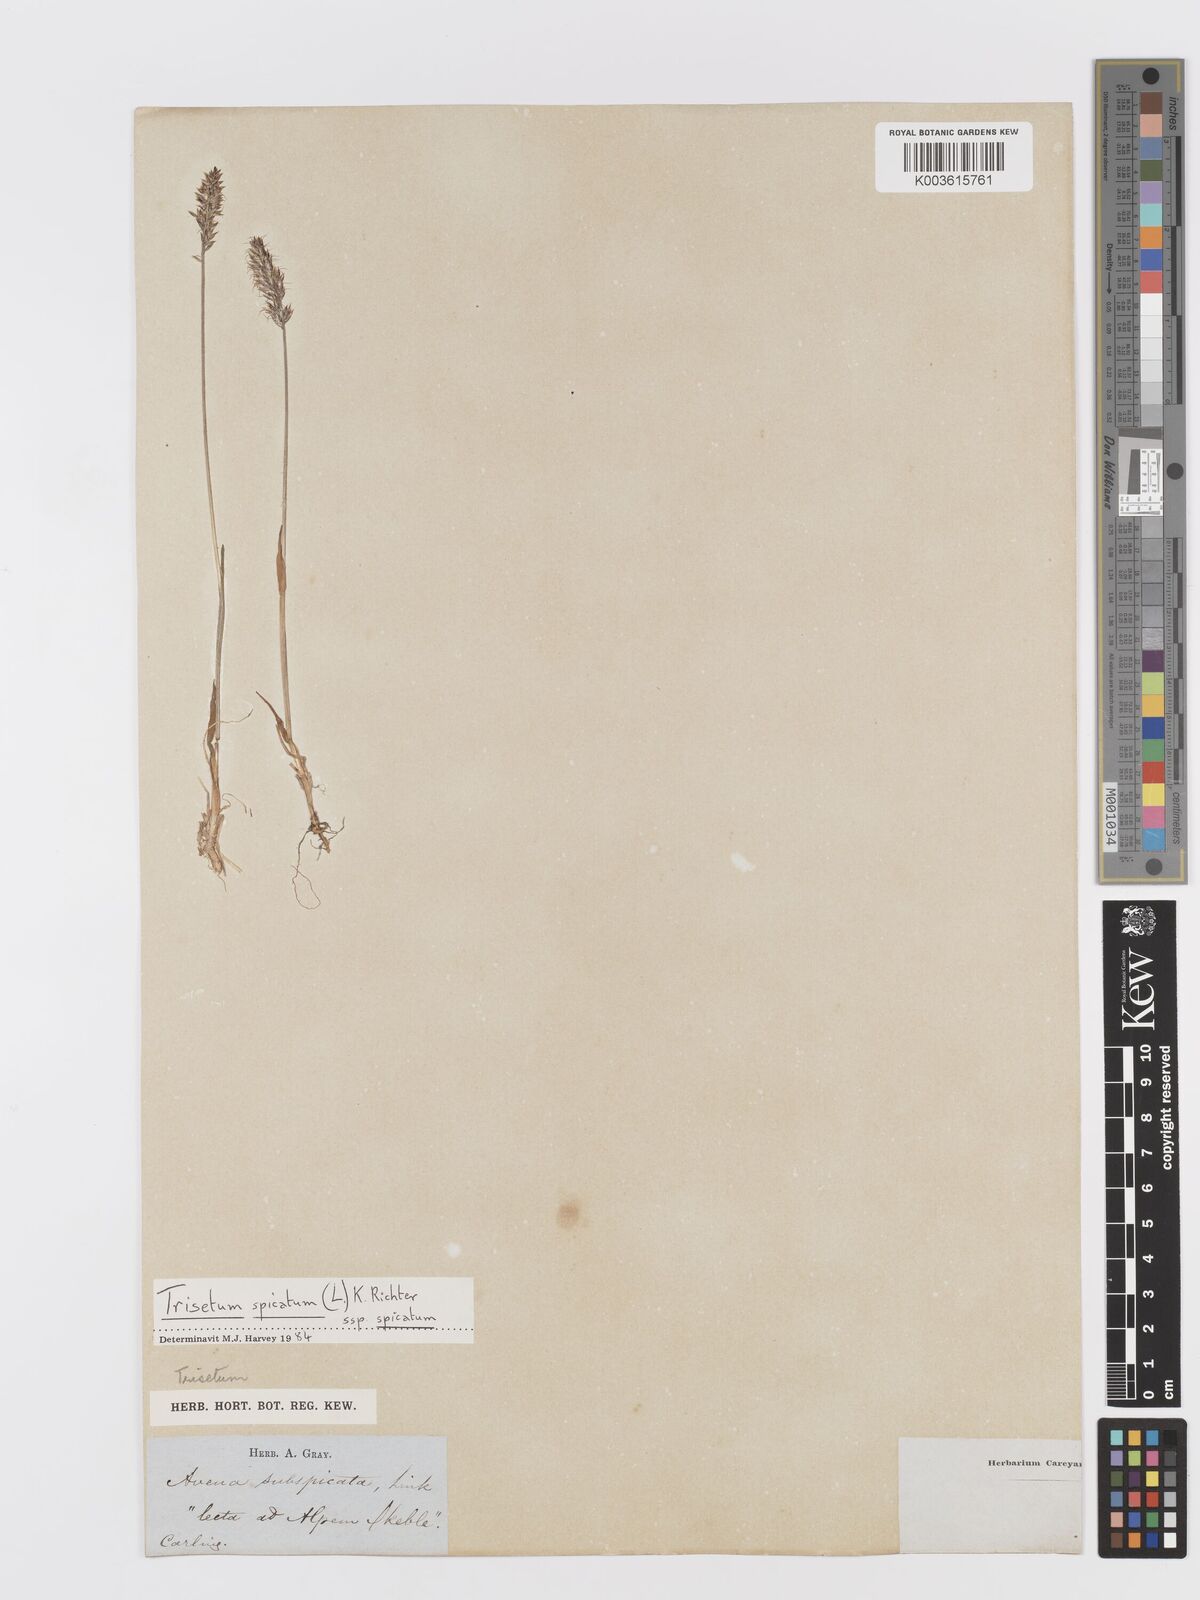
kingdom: Plantae
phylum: Tracheophyta
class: Liliopsida
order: Poales
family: Poaceae
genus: Trisetum
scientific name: Trisetum
